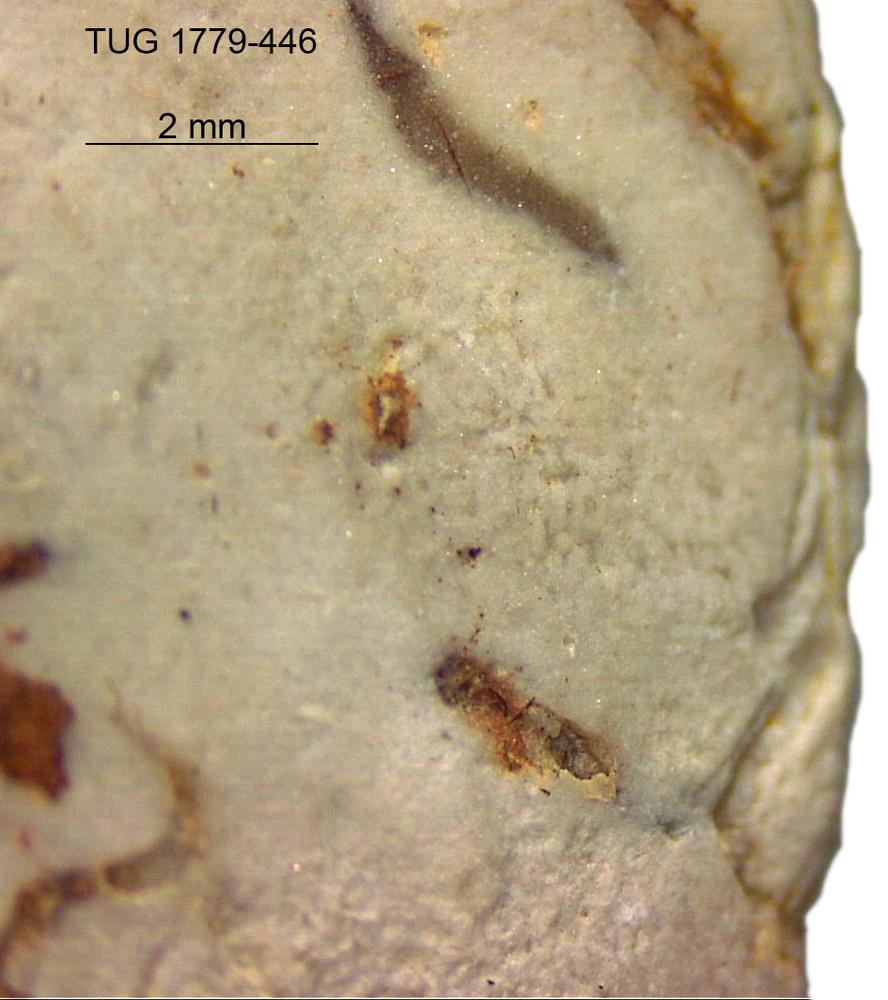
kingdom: Animalia
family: Coprulidae
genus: Coprulus
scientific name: Coprulus
